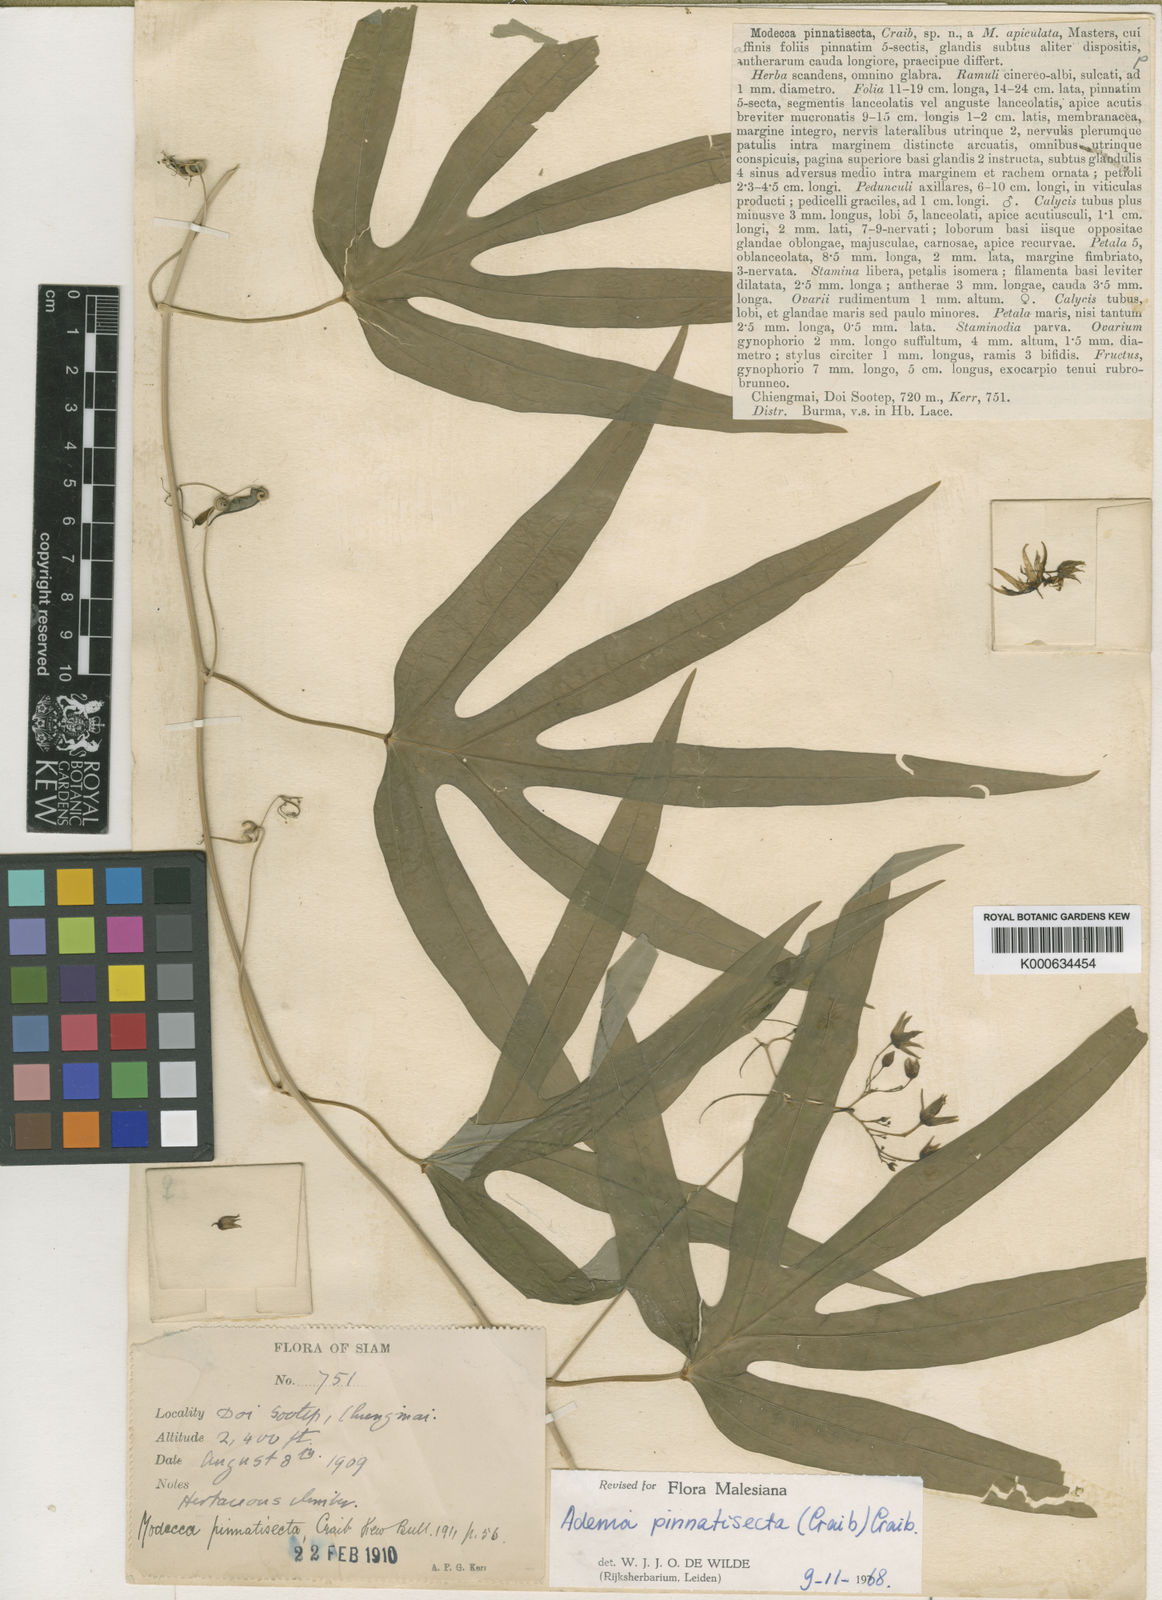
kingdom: Plantae
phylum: Tracheophyta
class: Magnoliopsida
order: Malpighiales
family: Passifloraceae
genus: Adenia
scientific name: Adenia pinnatisecta
